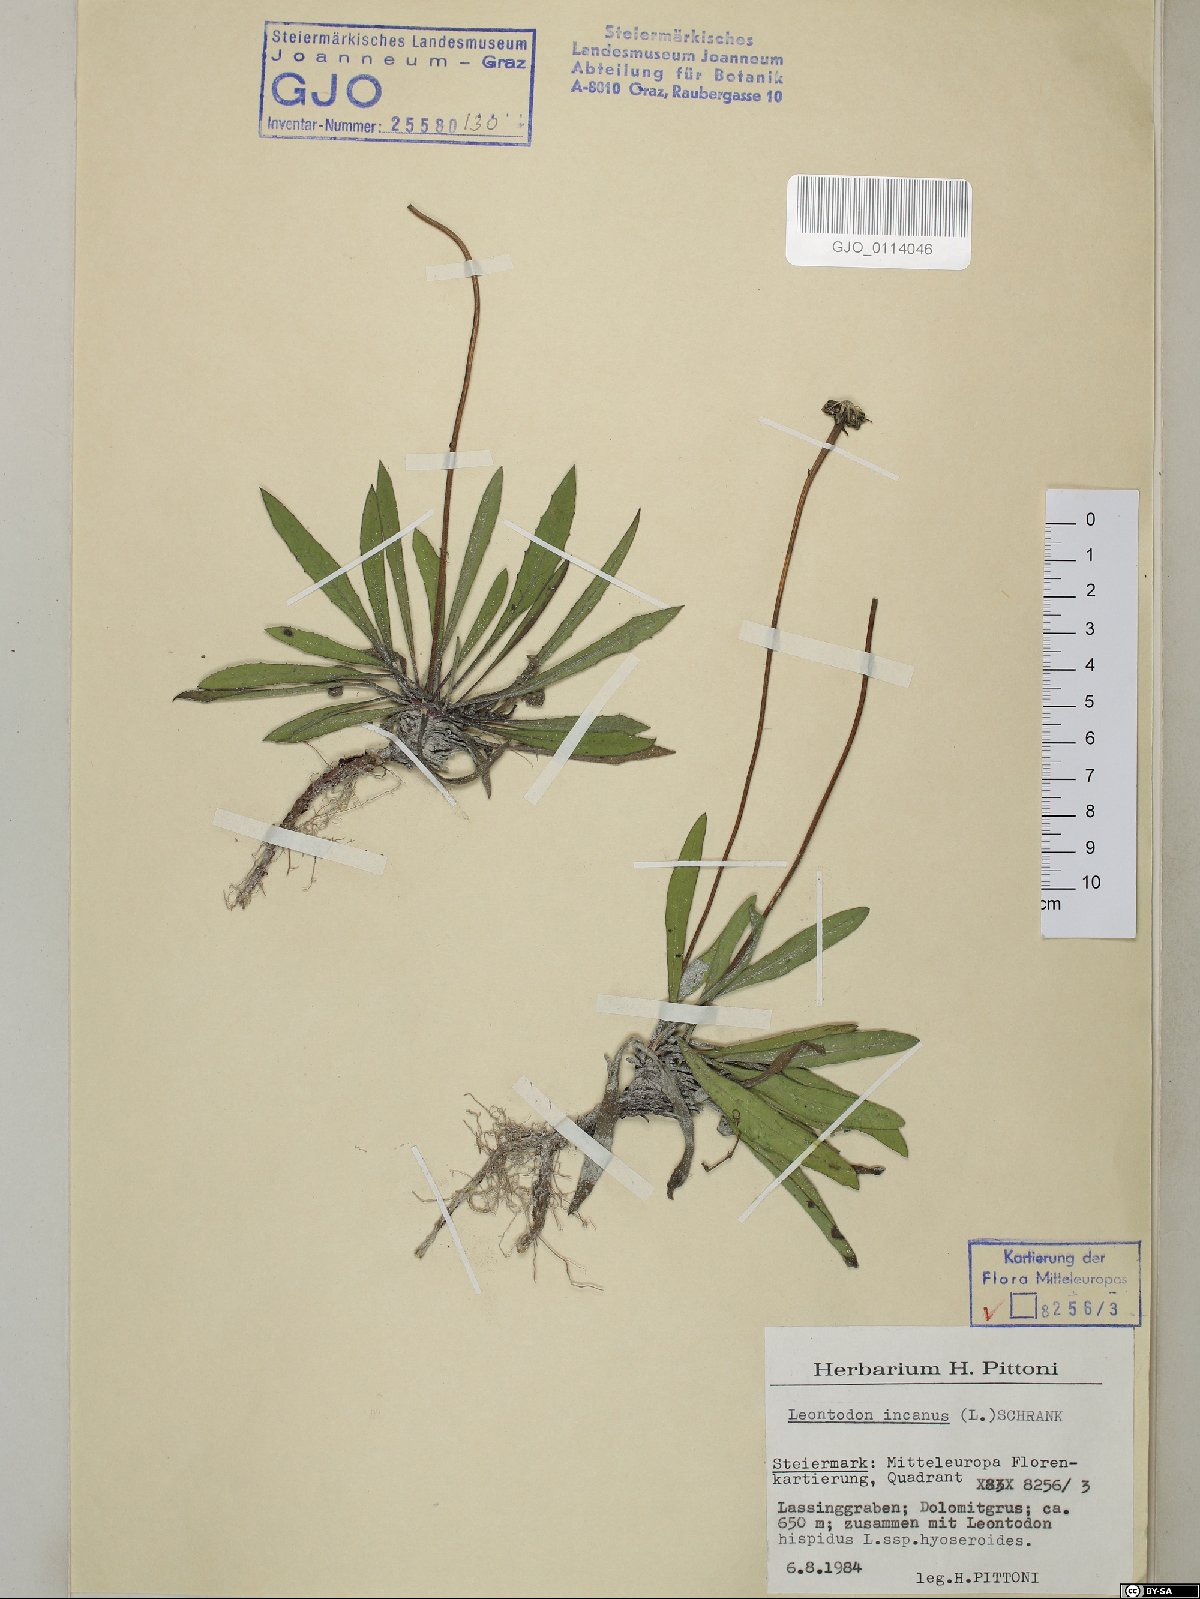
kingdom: Plantae
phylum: Tracheophyta
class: Magnoliopsida
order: Asterales
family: Asteraceae
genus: Leontodon
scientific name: Leontodon incanus
